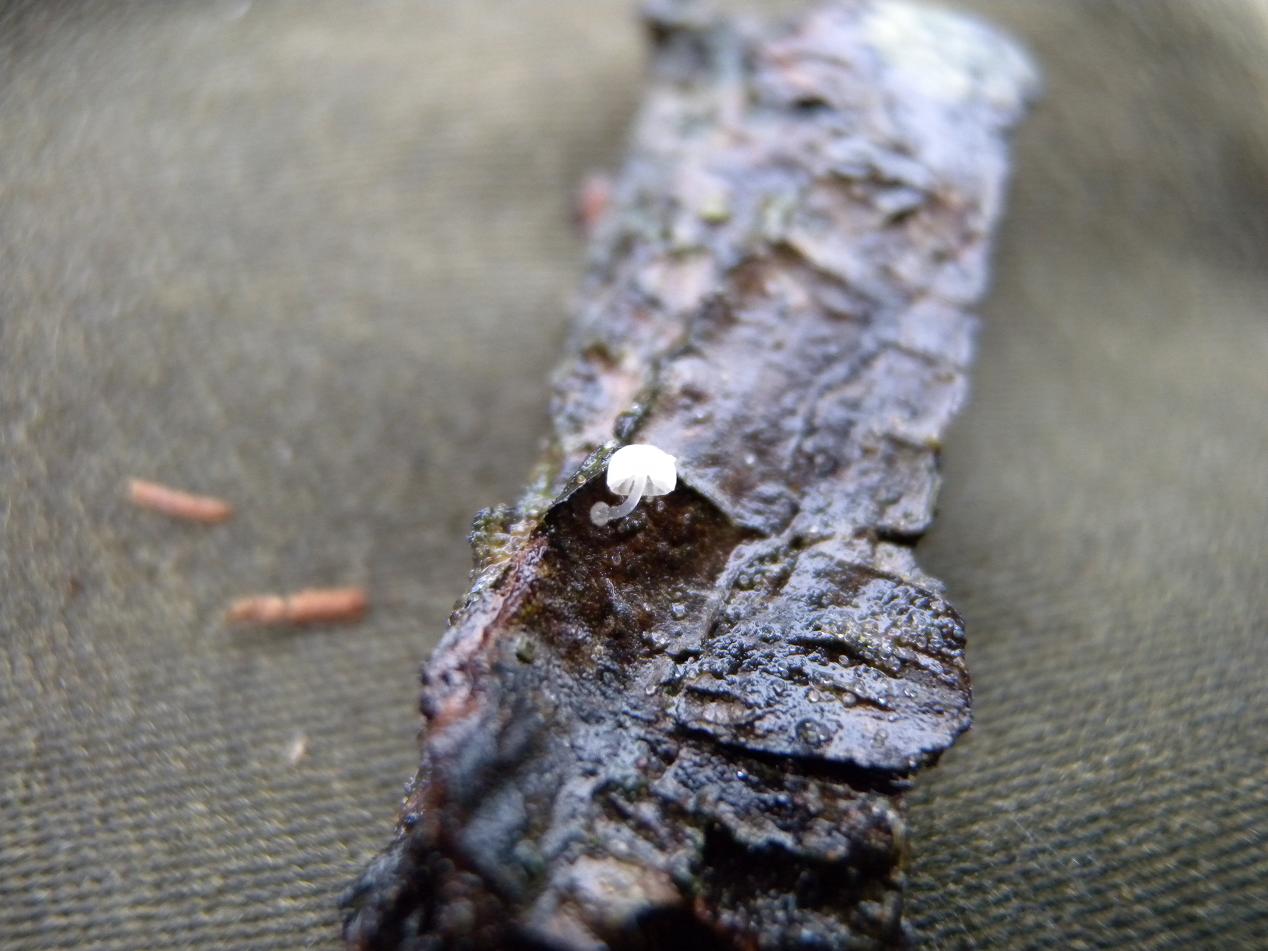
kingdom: Fungi
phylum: Basidiomycota
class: Agaricomycetes
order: Agaricales
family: Mycenaceae
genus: Mycena
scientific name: Mycena clavularis
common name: dunskivet huesvamp
